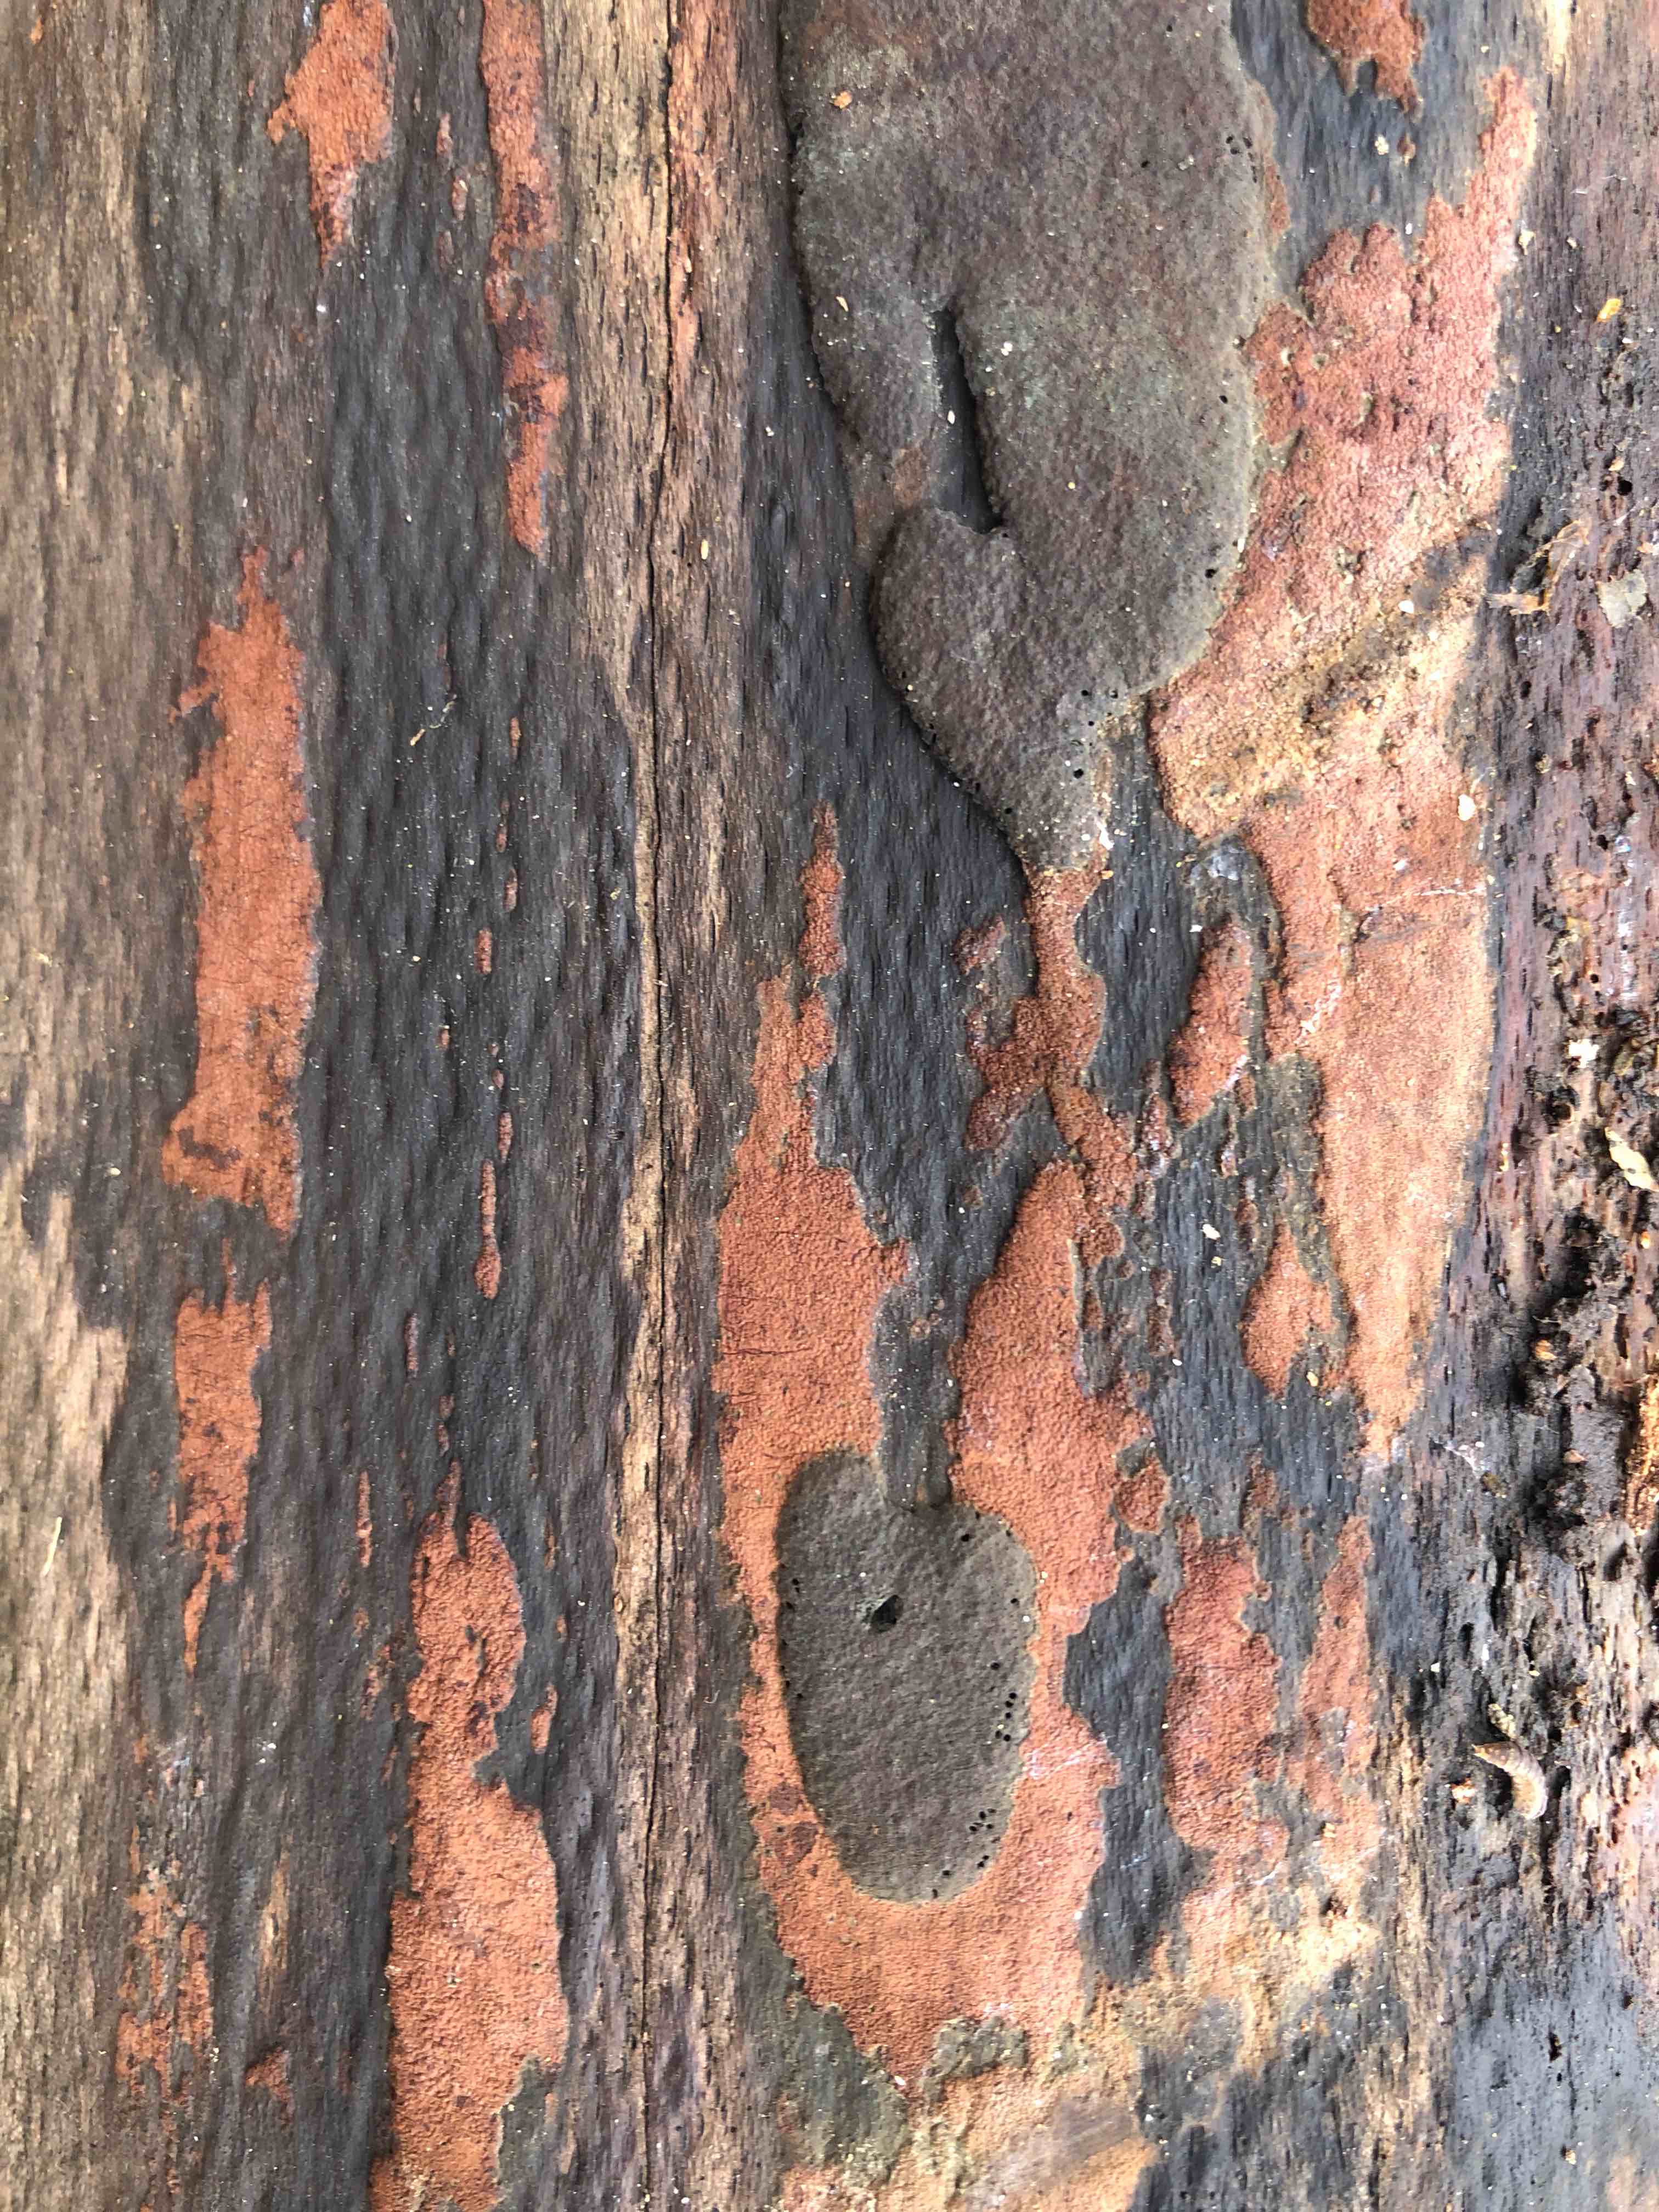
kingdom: Fungi
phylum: Ascomycota
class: Sordariomycetes
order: Xylariales
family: Hypoxylaceae
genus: Hypoxylon
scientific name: Hypoxylon rubiginosum
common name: rustfarvet kulbær
